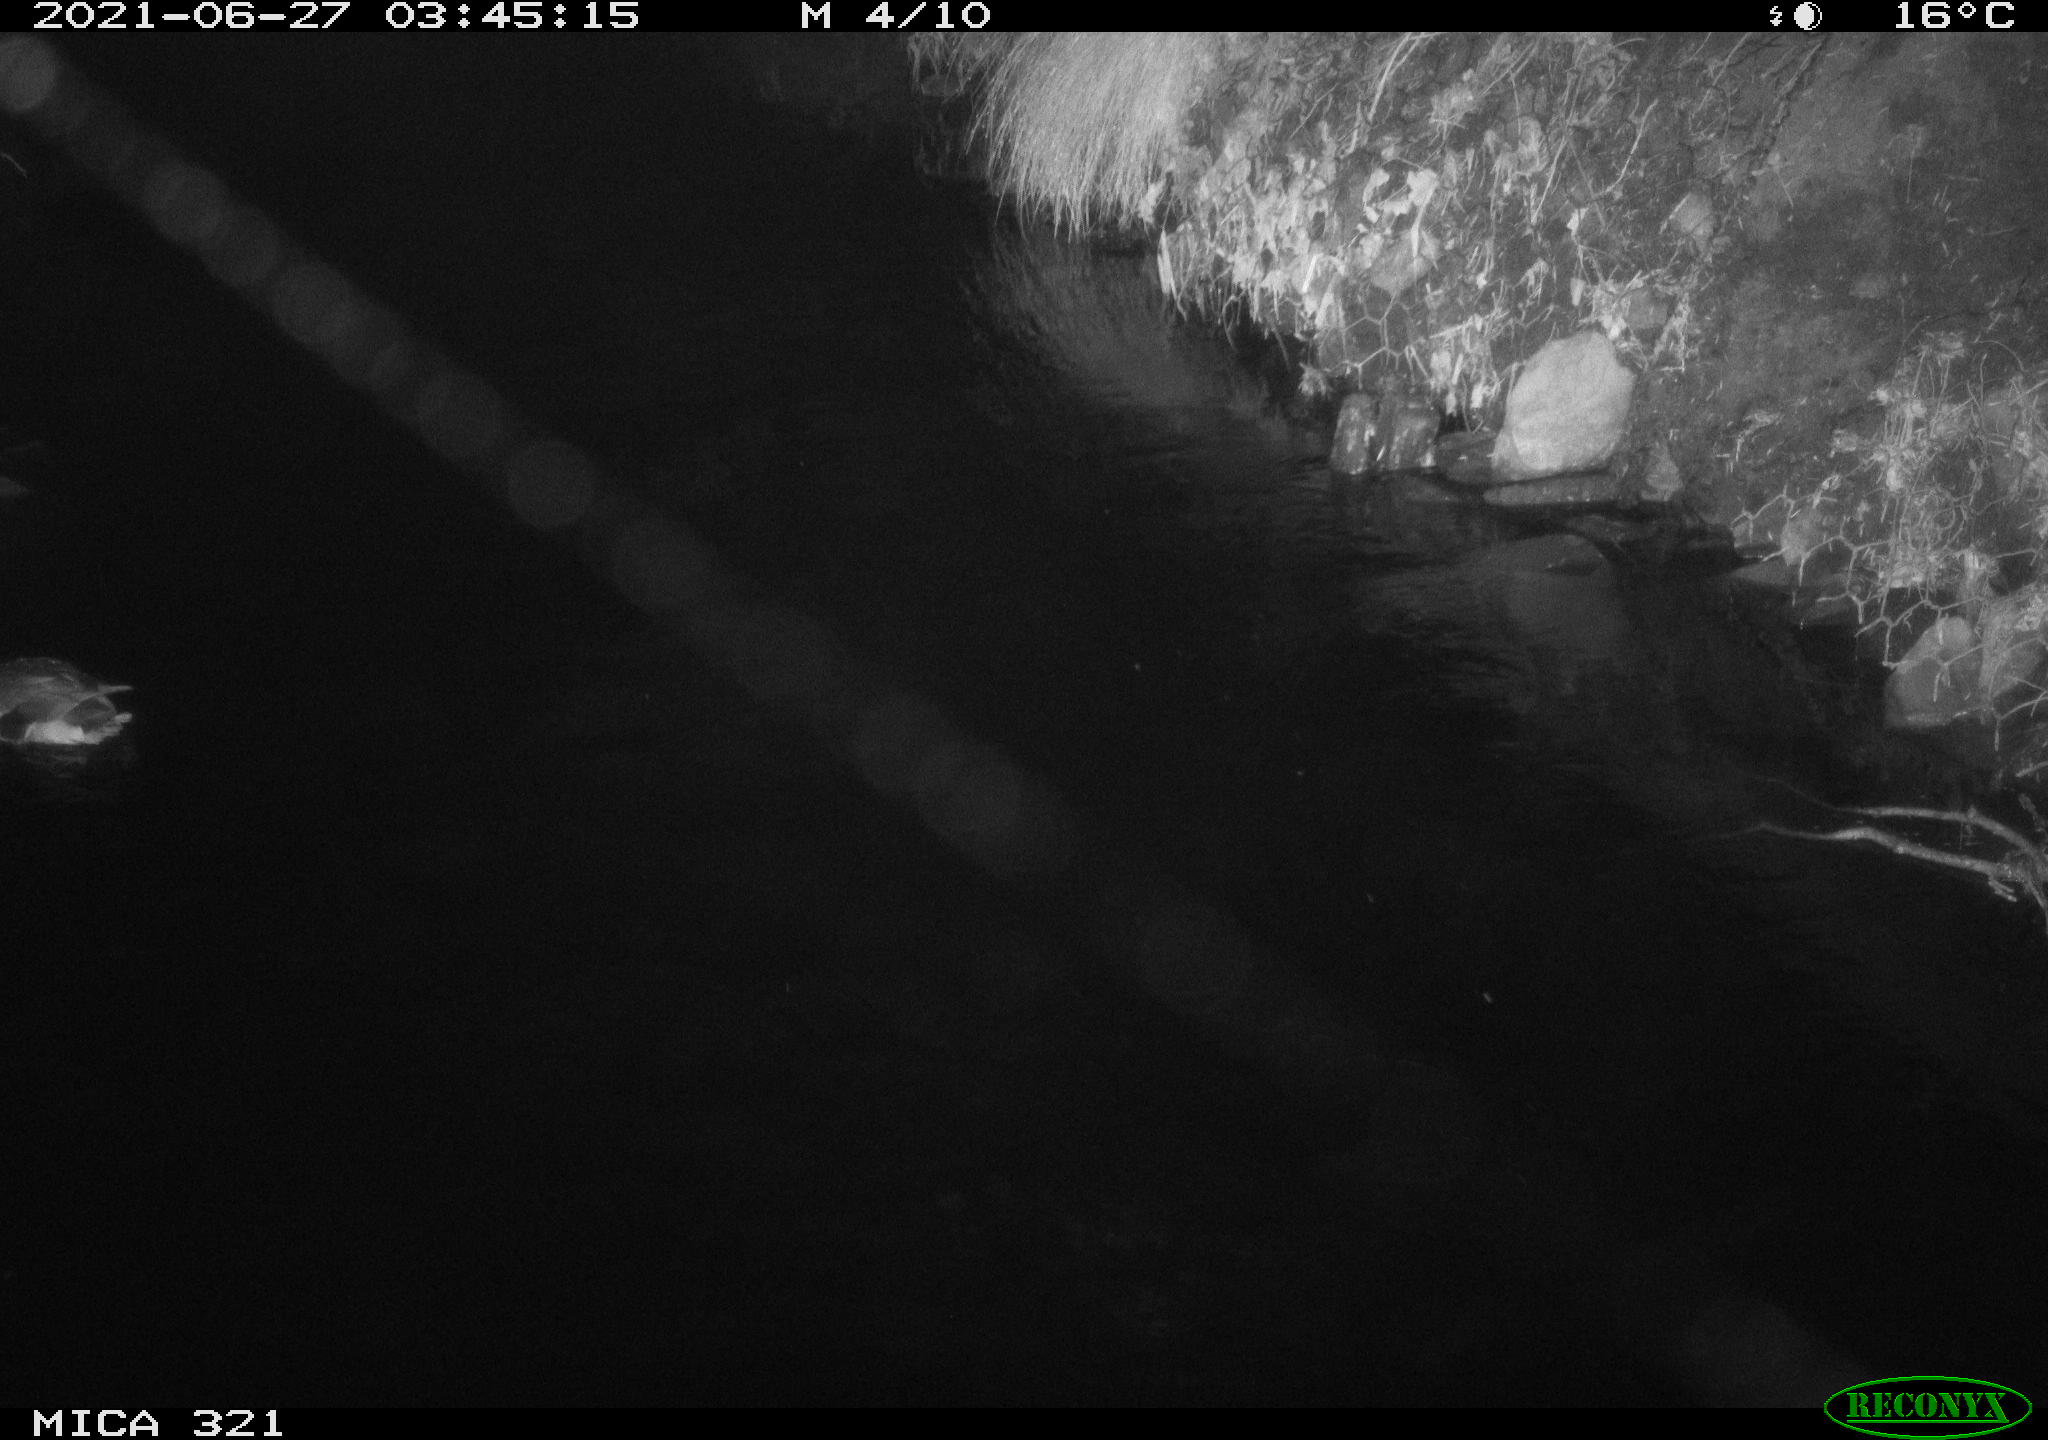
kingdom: Animalia
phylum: Chordata
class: Aves
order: Anseriformes
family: Anatidae
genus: Anas
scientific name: Anas platyrhynchos
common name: Mallard
